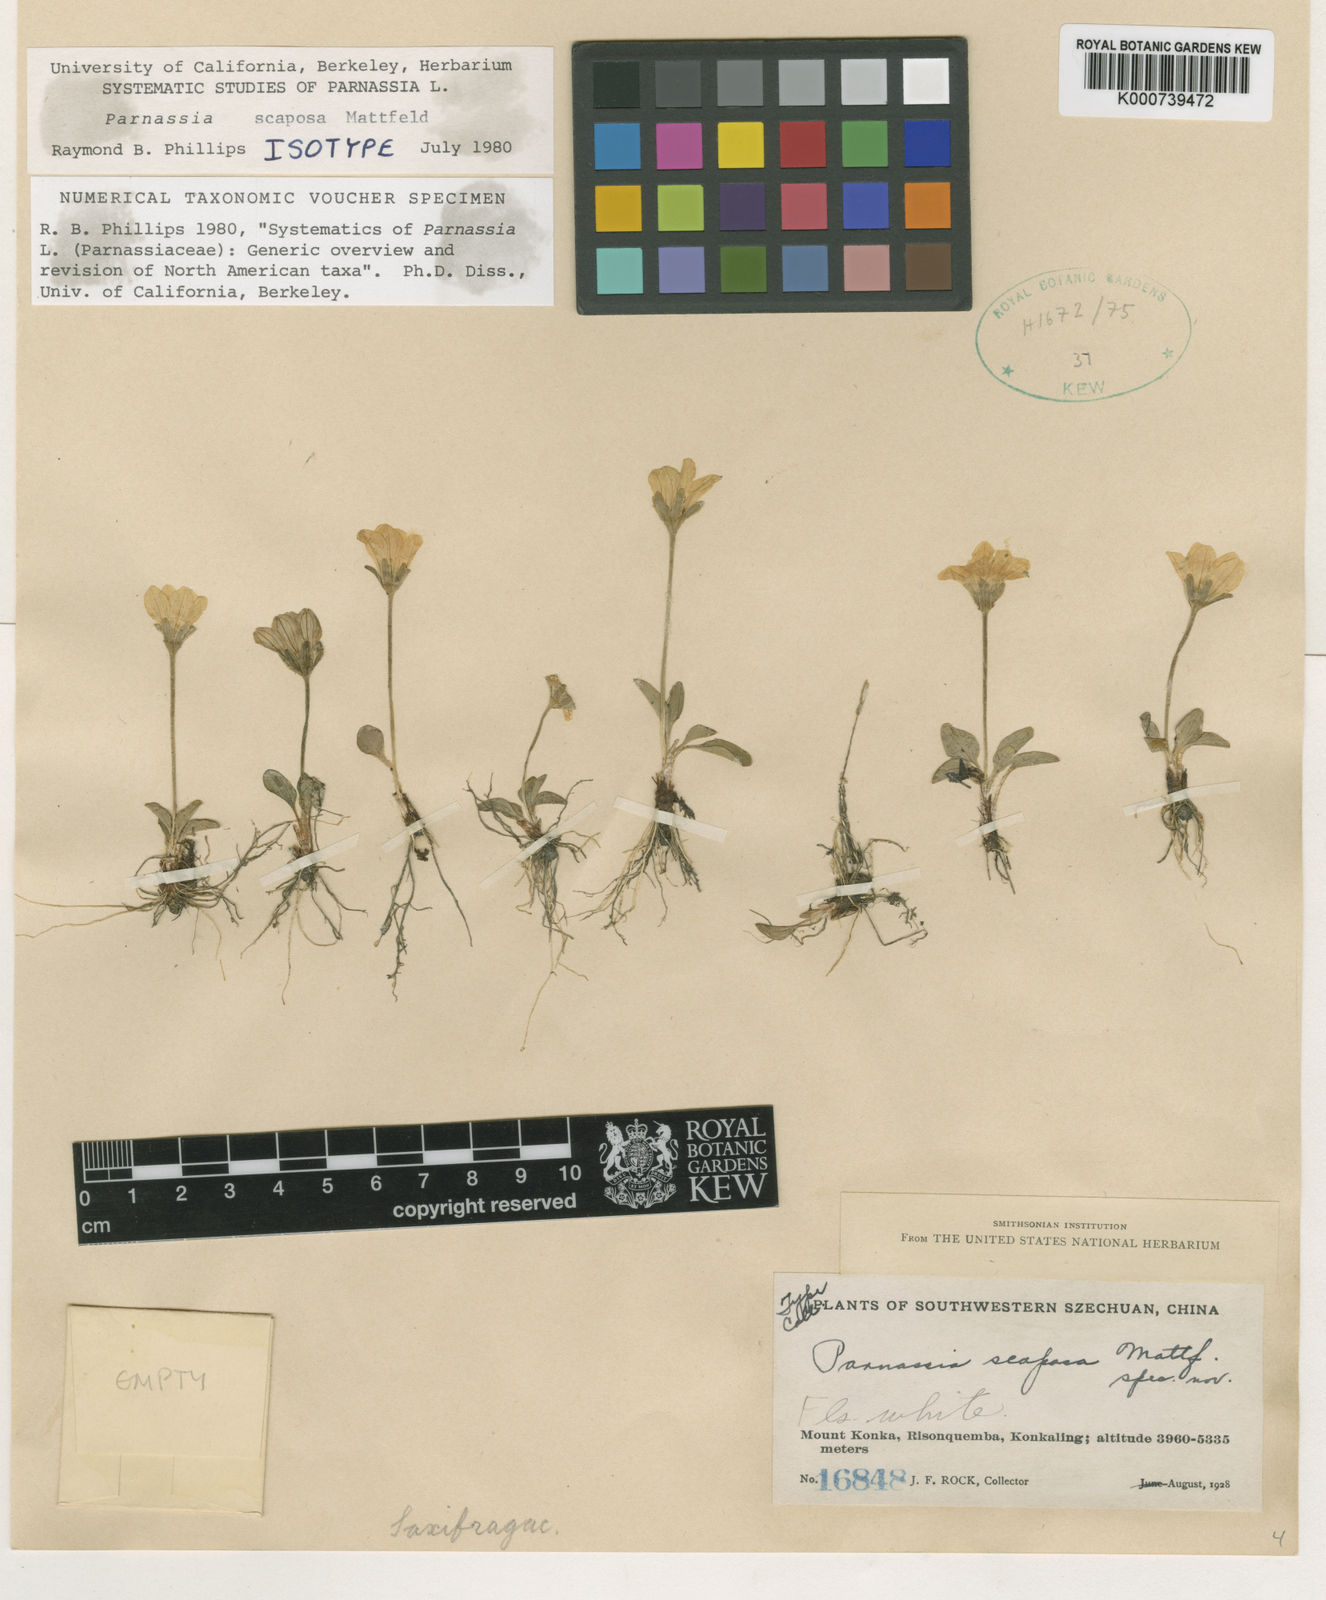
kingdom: Plantae
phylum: Tracheophyta
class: Magnoliopsida
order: Celastrales
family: Parnassiaceae
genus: Parnassia
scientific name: Parnassia scaposa
